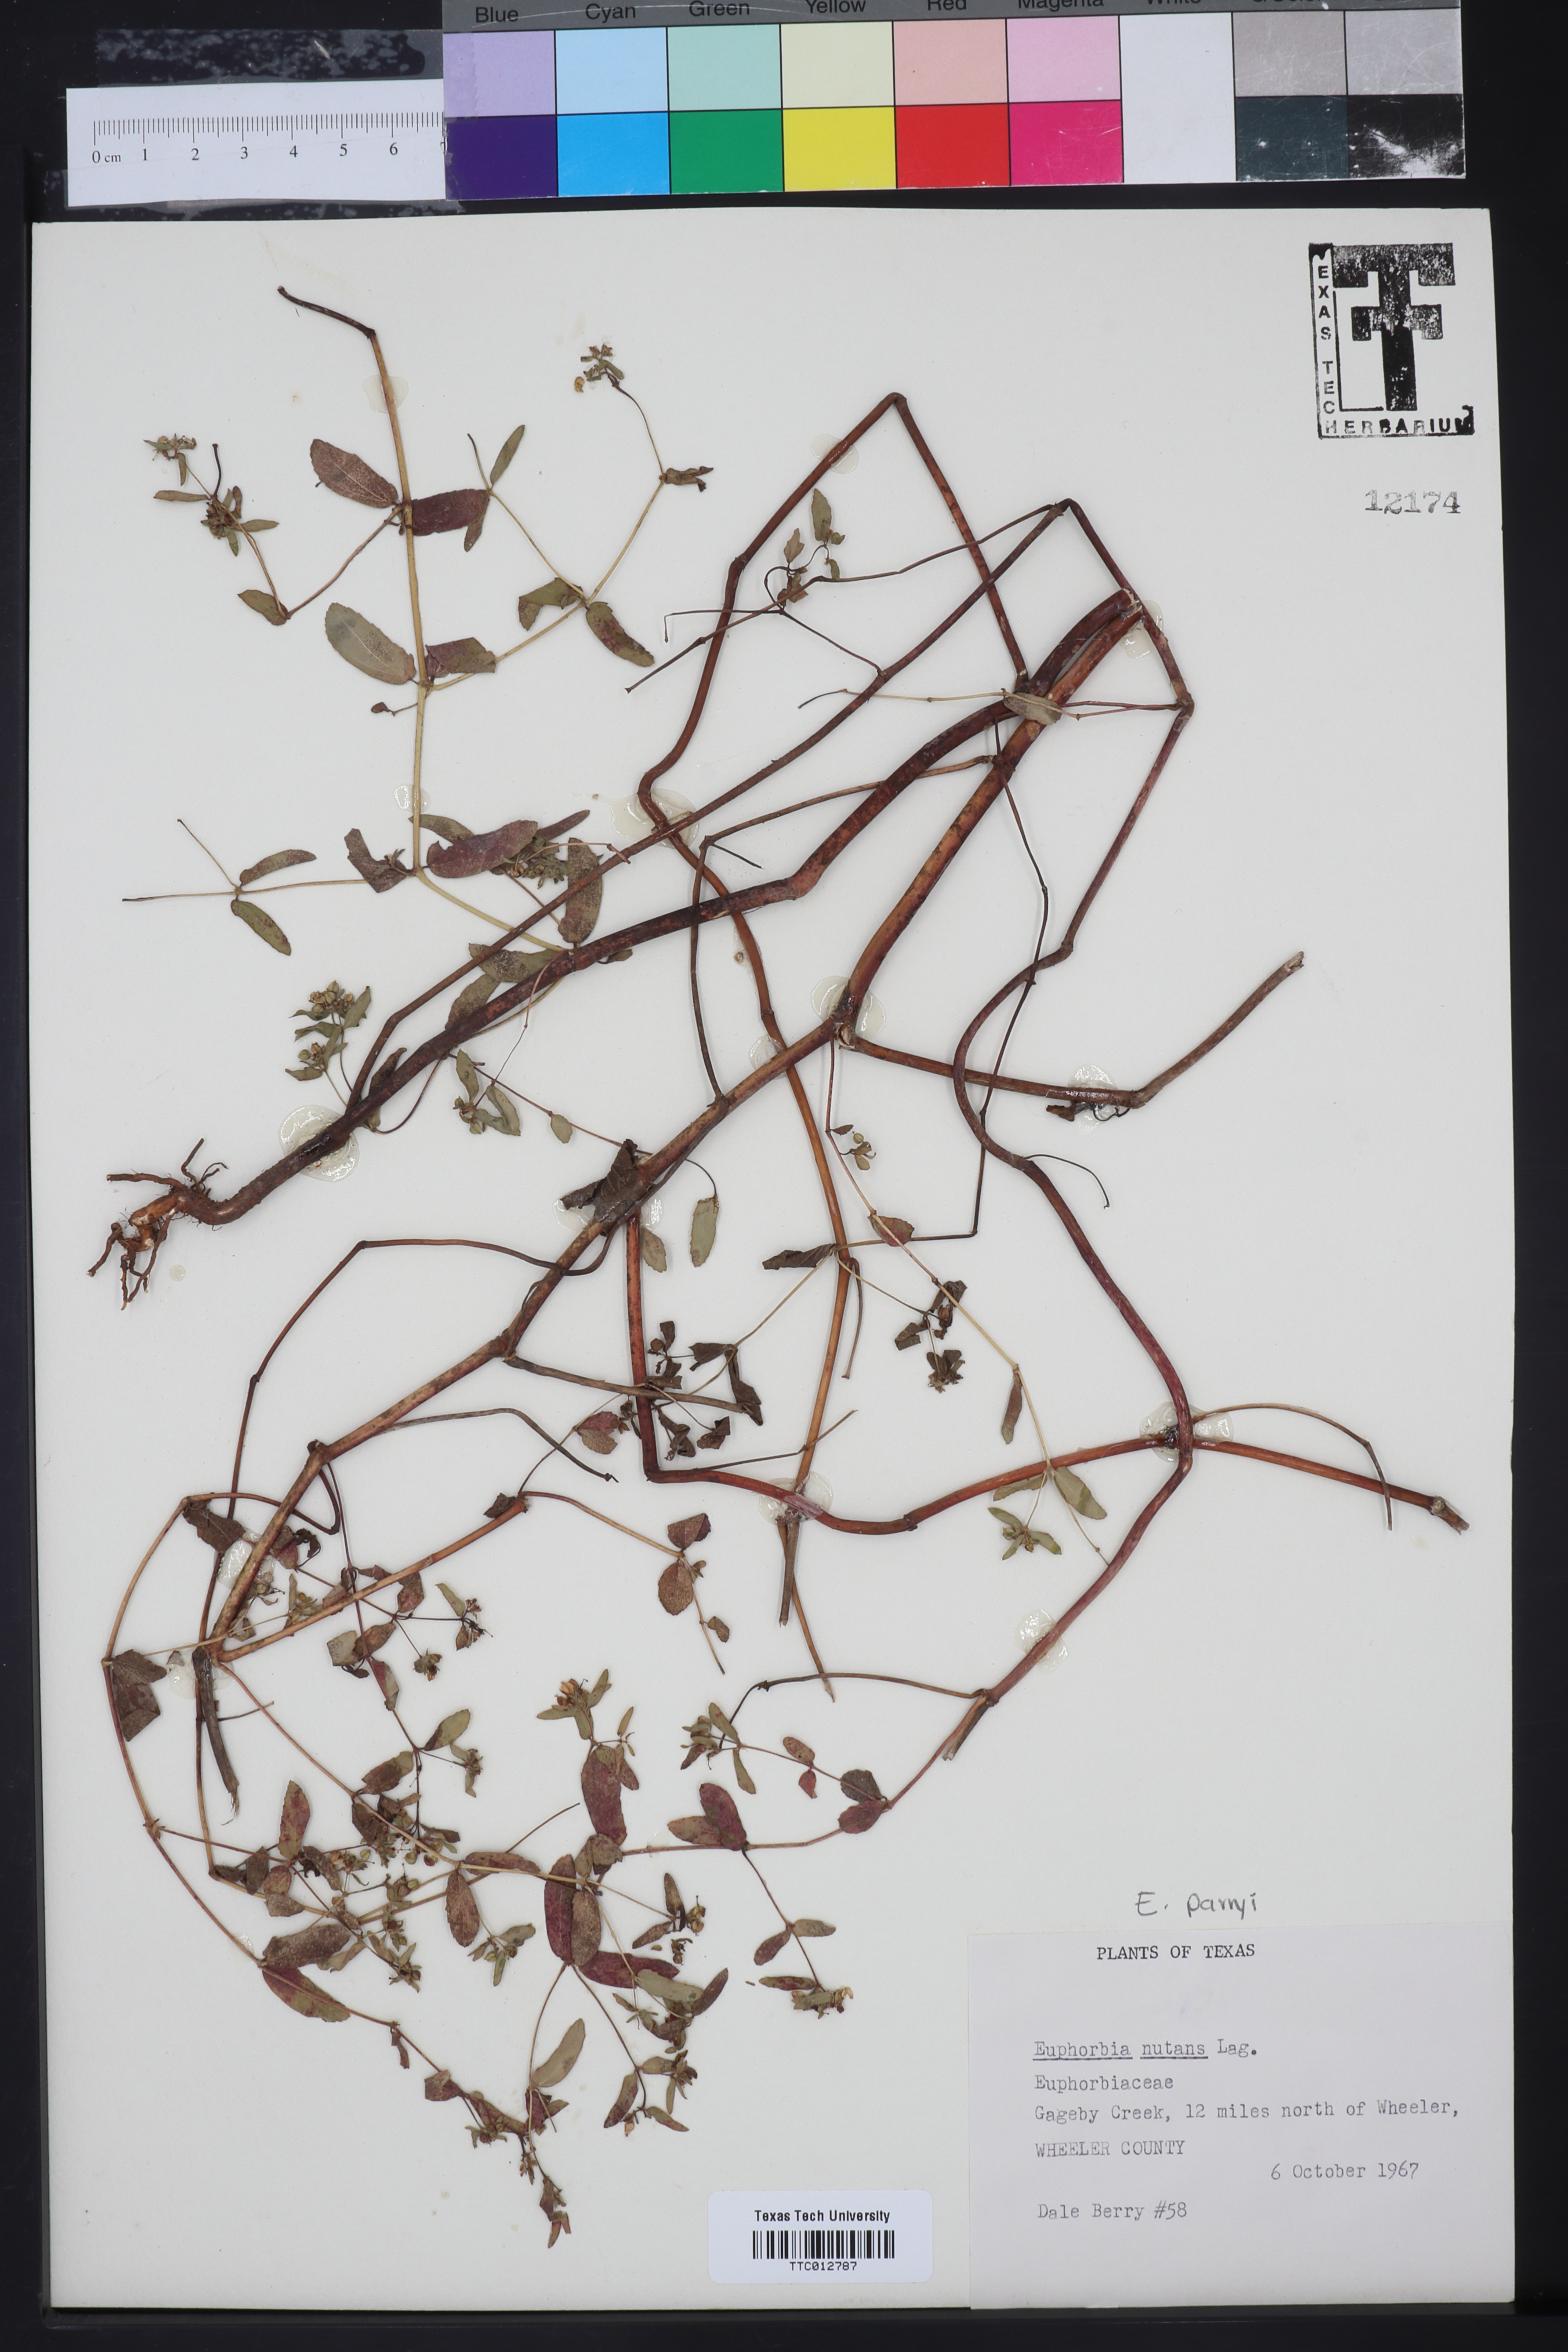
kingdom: Plantae
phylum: Tracheophyta
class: Magnoliopsida
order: Malpighiales
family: Euphorbiaceae
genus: Euphorbia
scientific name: Euphorbia nutans
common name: Eyebane
